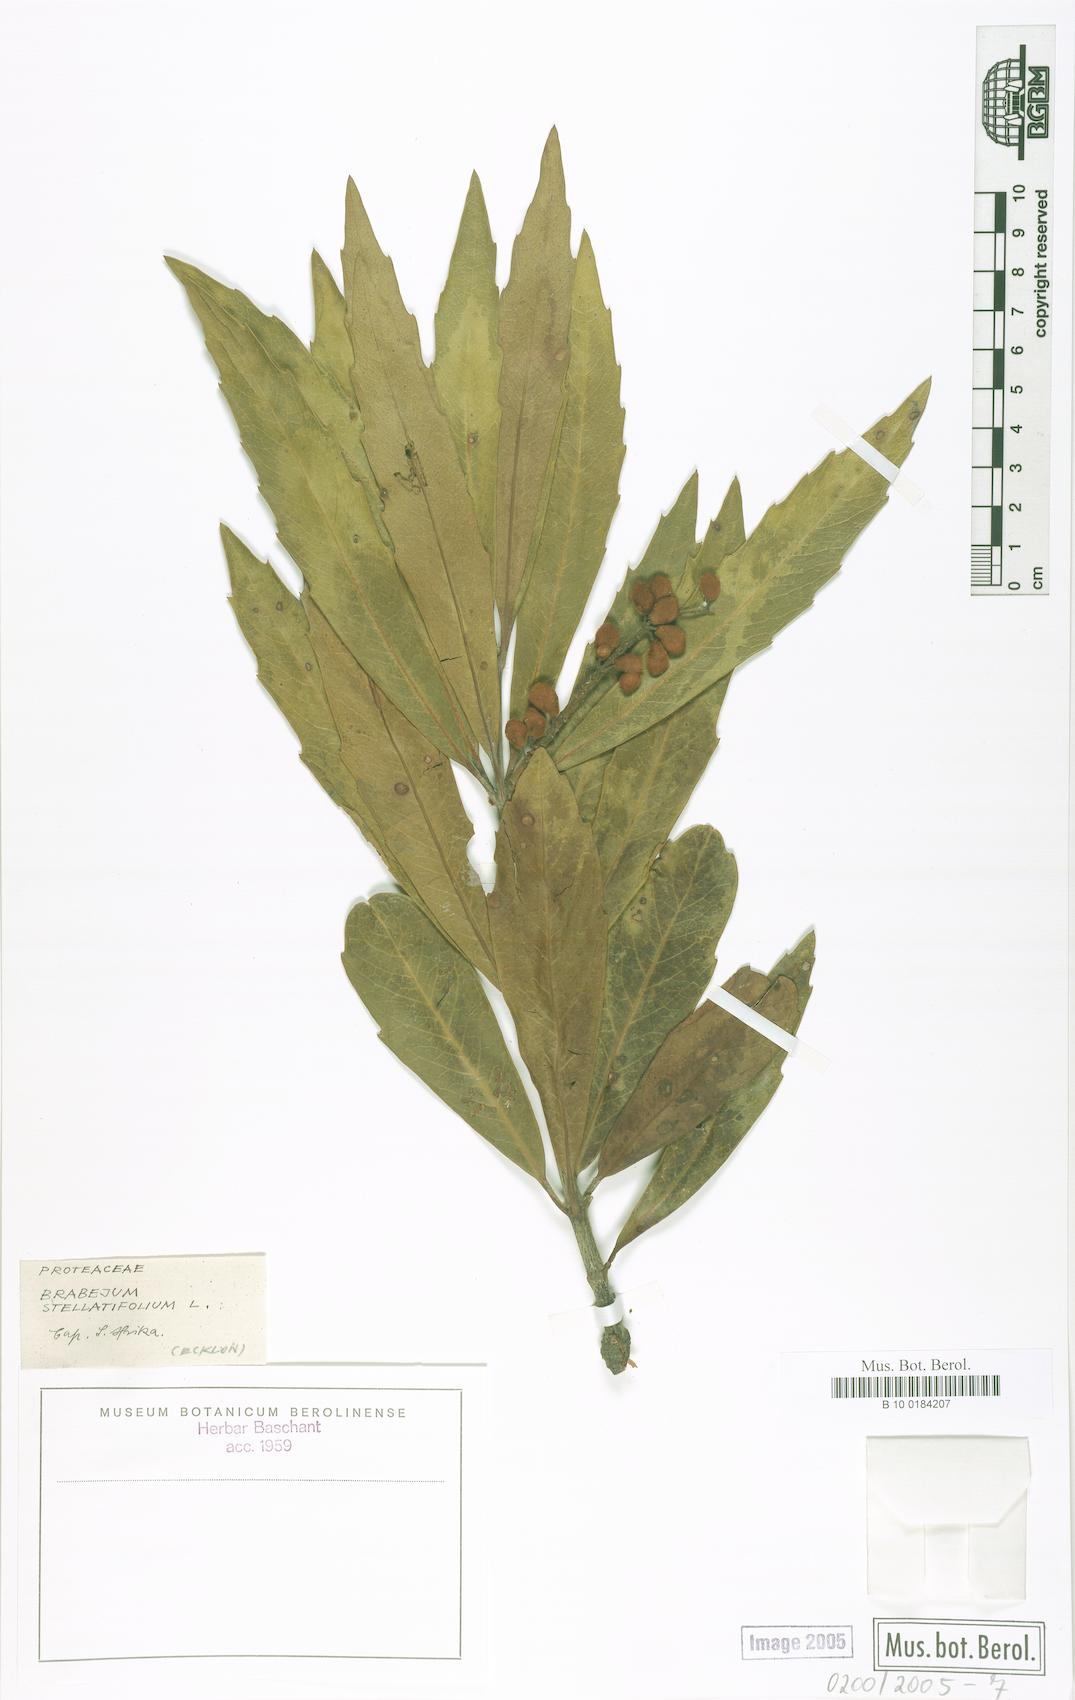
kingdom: Plantae
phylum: Tracheophyta
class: Magnoliopsida
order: Proteales
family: Proteaceae
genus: Brabejum
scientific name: Brabejum stellatifolium
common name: Wild almond
